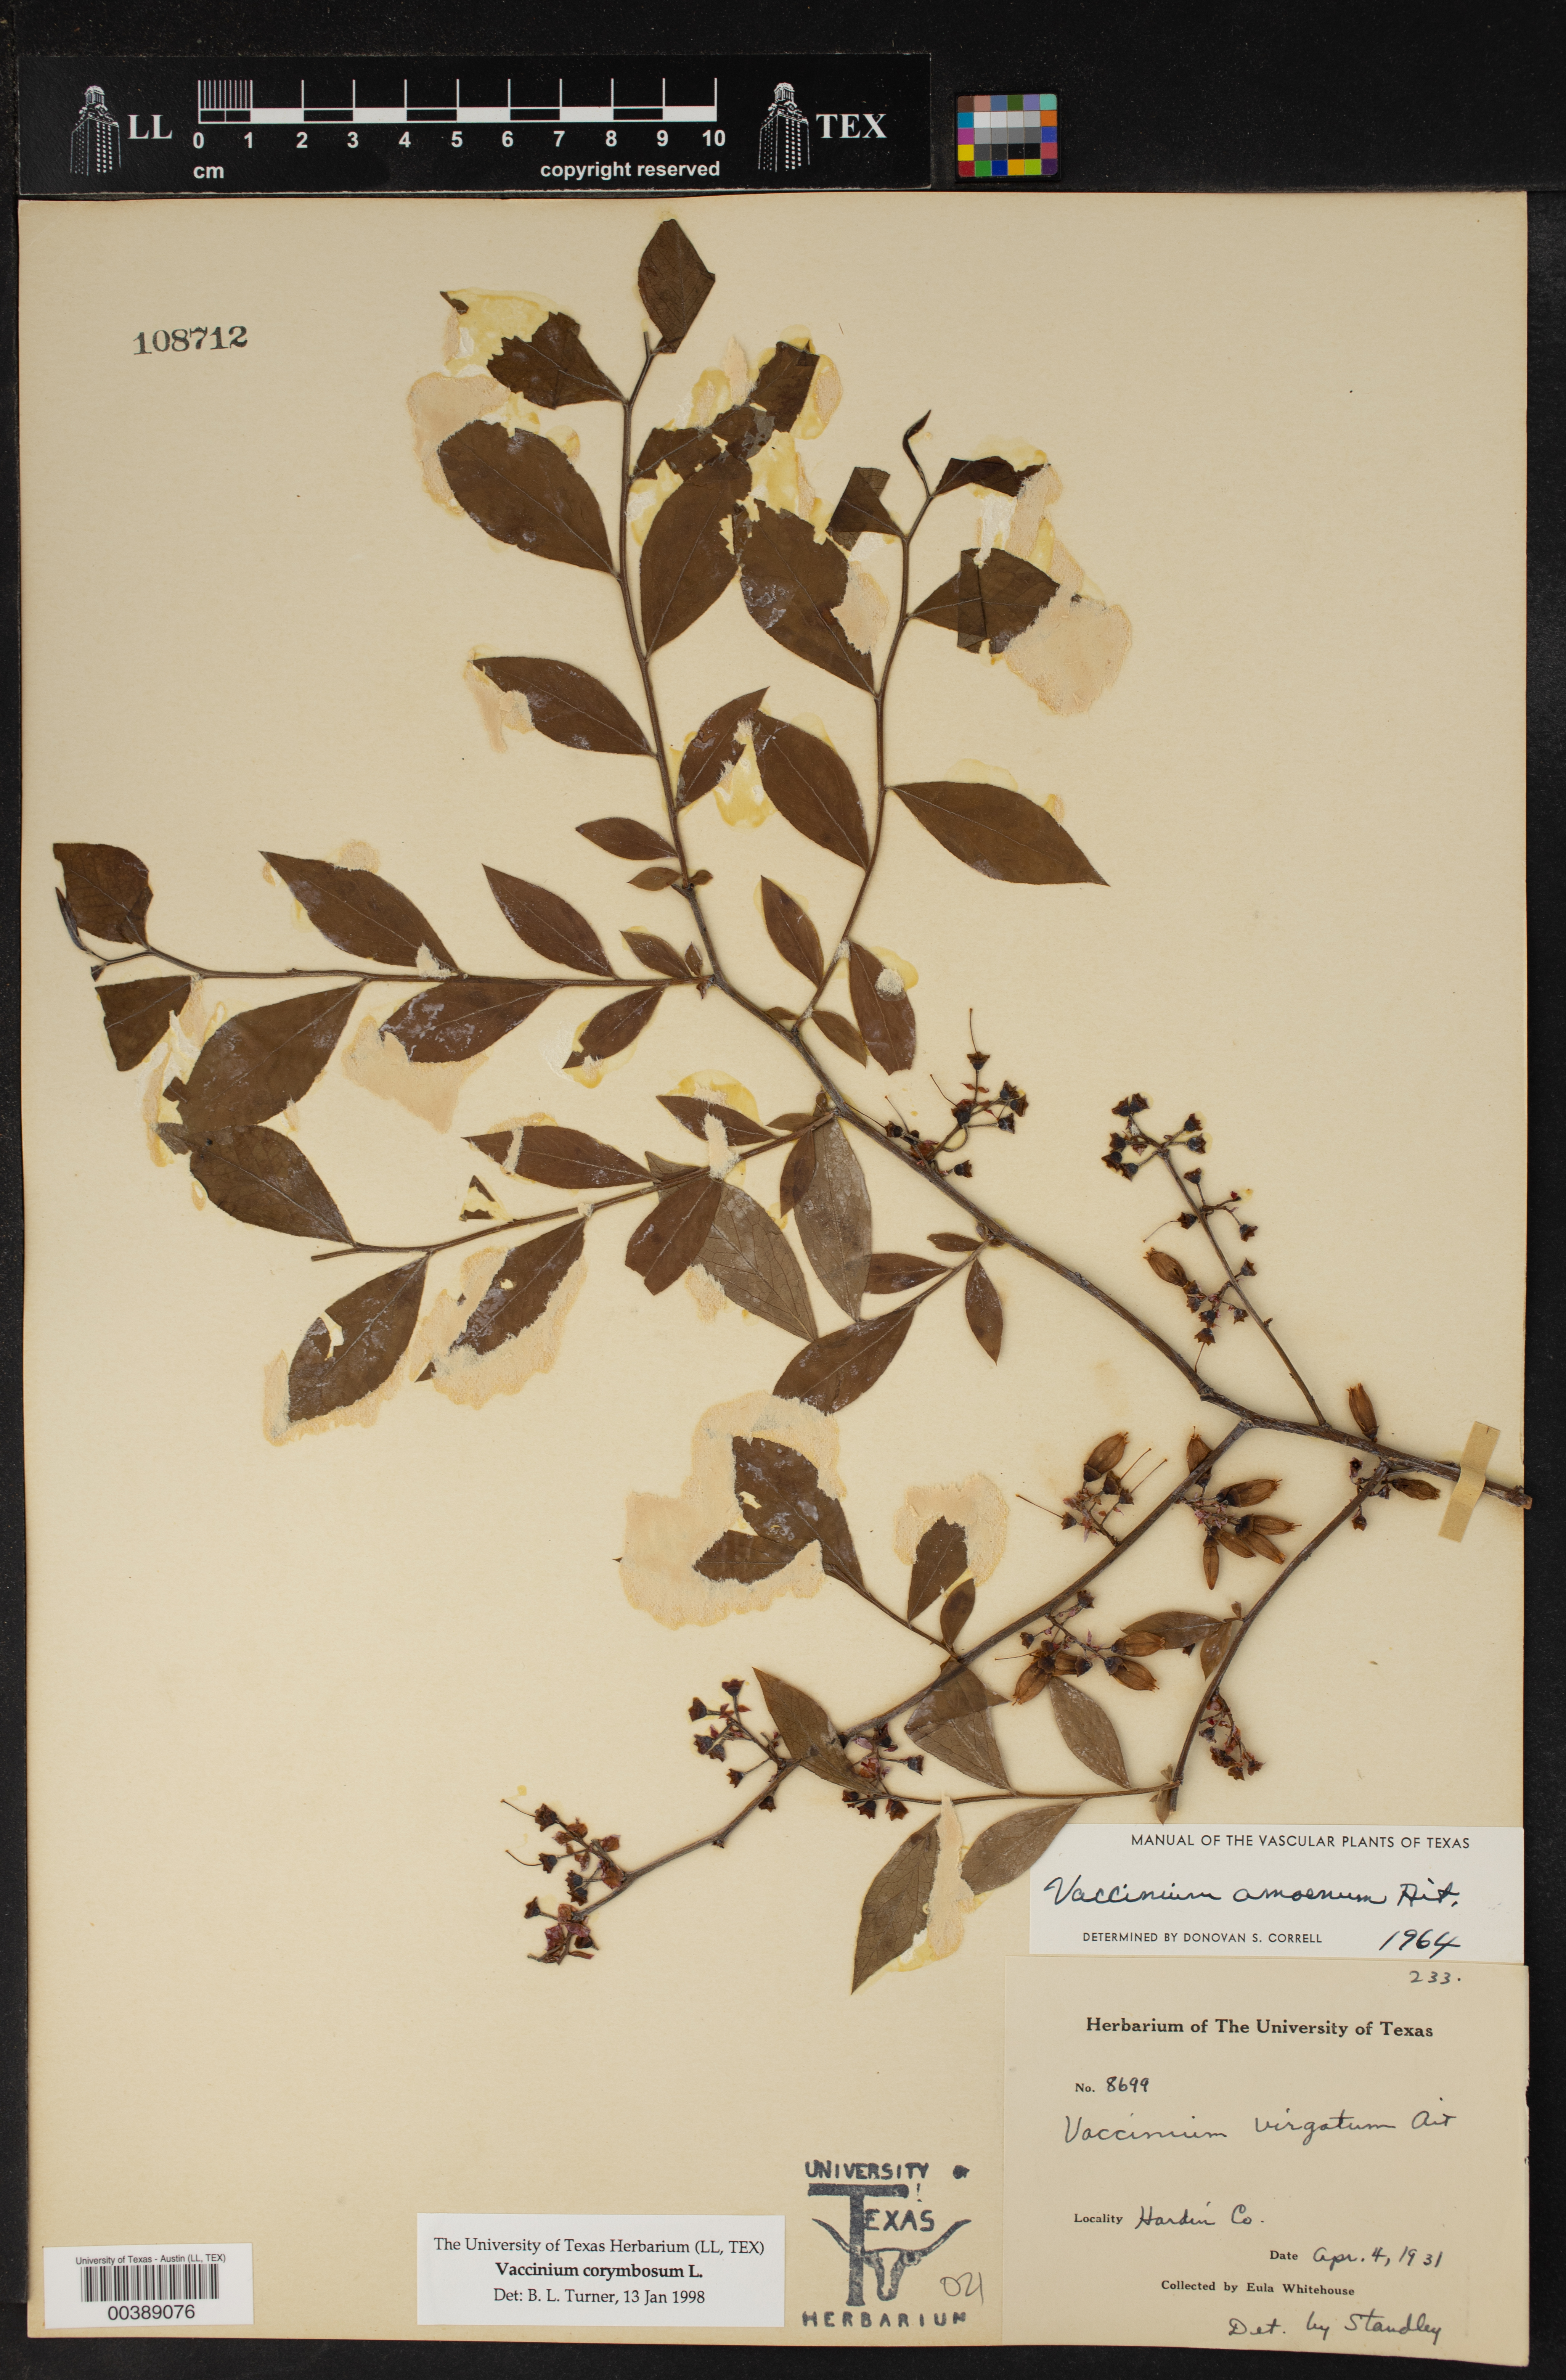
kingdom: Plantae
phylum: Tracheophyta
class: Magnoliopsida
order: Ericales
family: Ericaceae
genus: Vaccinium
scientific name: Vaccinium corymbosum
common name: Blueberry
